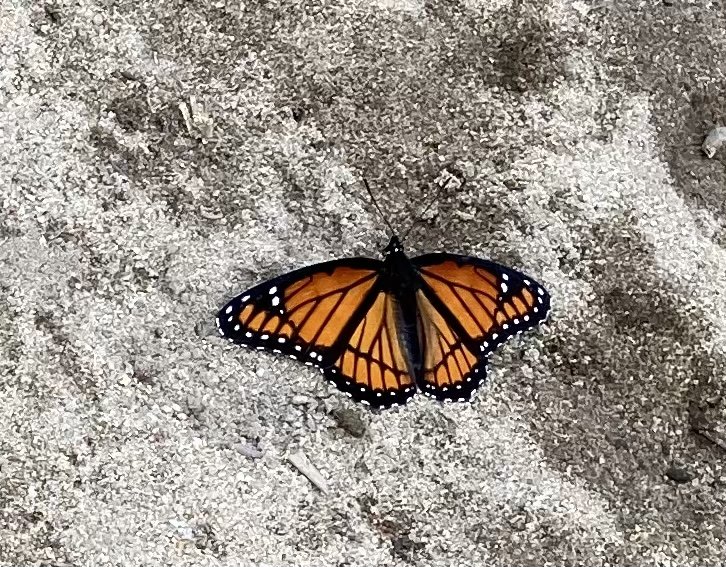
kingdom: Animalia
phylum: Arthropoda
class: Insecta
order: Lepidoptera
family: Nymphalidae
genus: Limenitis
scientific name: Limenitis archippus
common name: Viceroy
